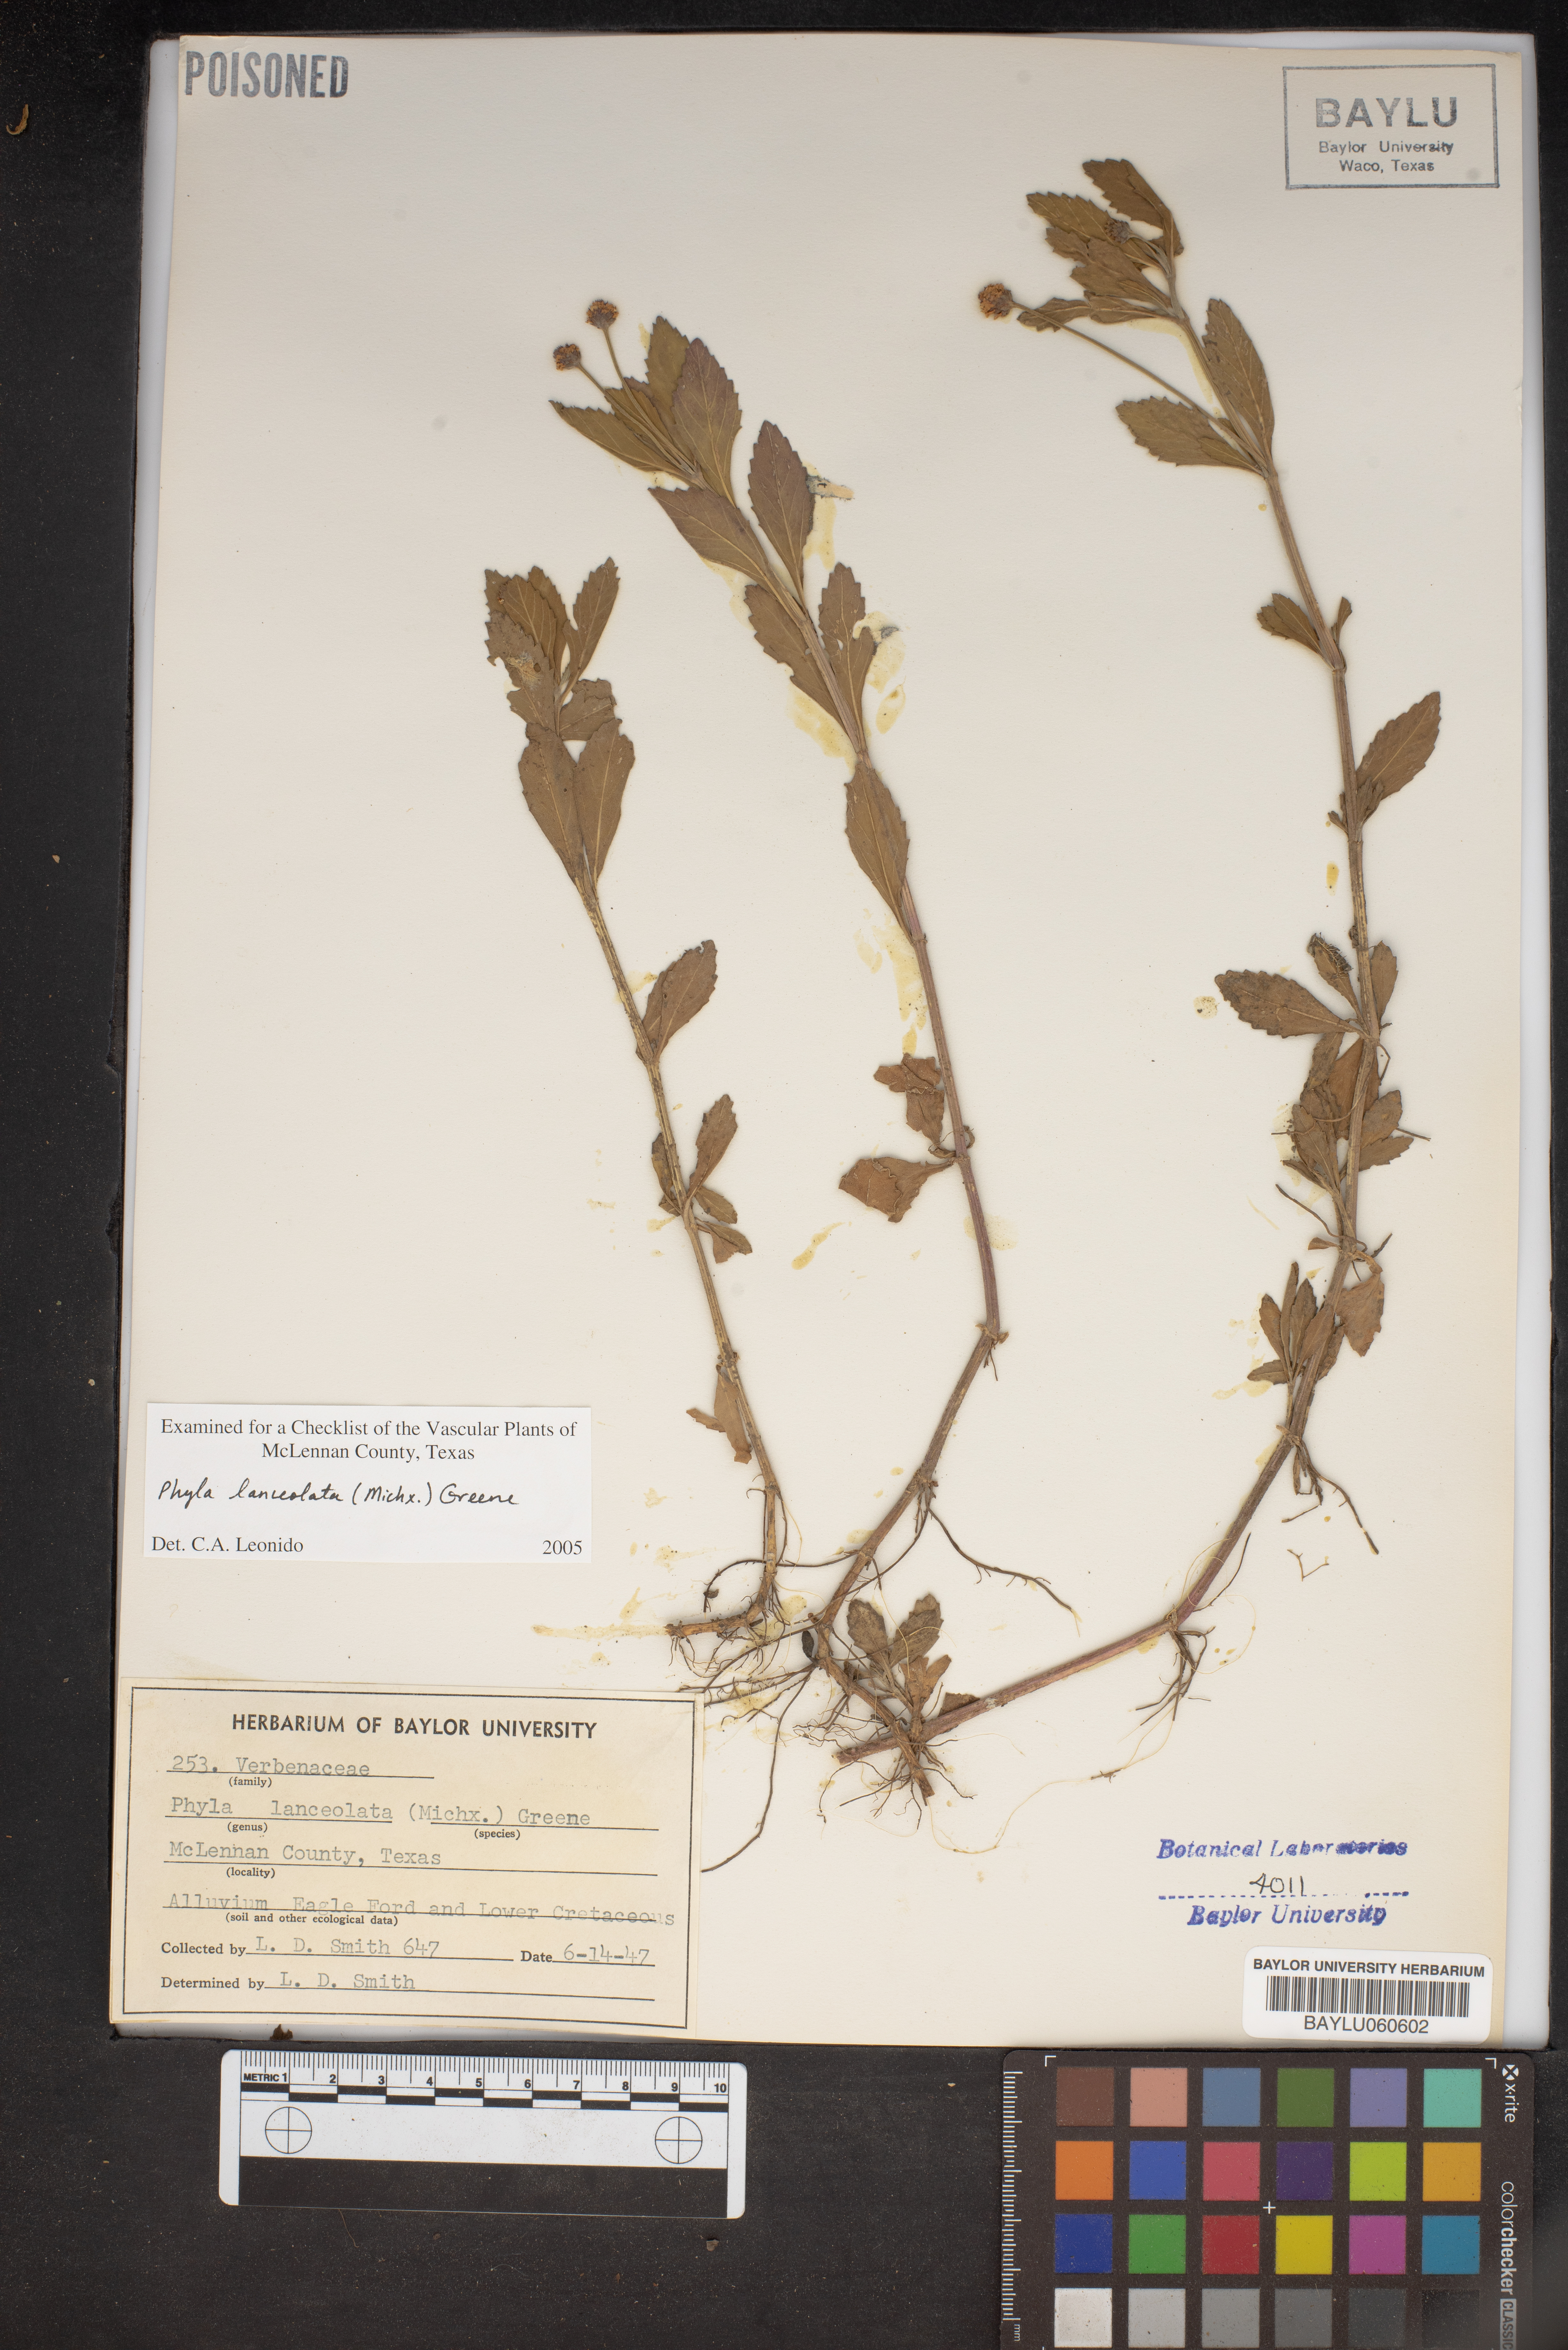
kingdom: Plantae
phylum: Tracheophyta
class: Magnoliopsida
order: Lamiales
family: Verbenaceae
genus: Phyla
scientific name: Phyla lanceolata
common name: Northern fogfruit
